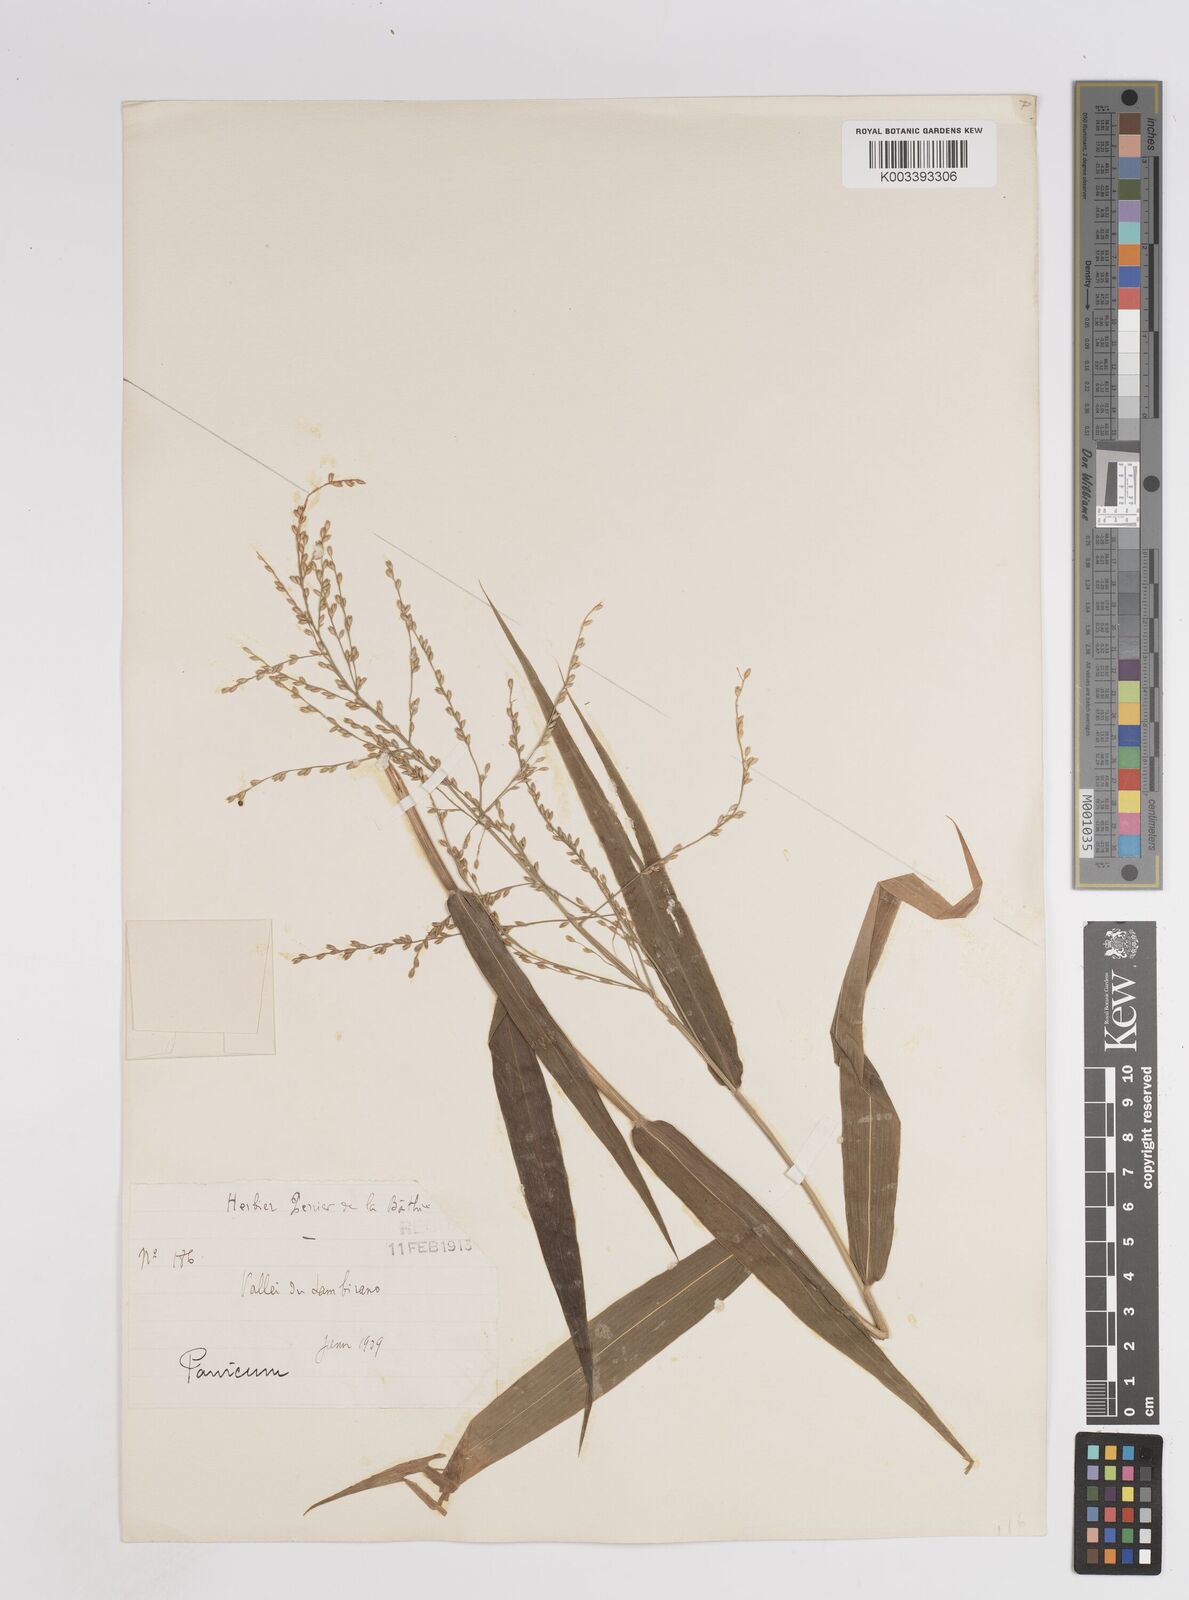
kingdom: Plantae
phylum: Tracheophyta
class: Liliopsida
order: Poales
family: Poaceae
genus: Panicum
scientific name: Panicum malacotrichum
